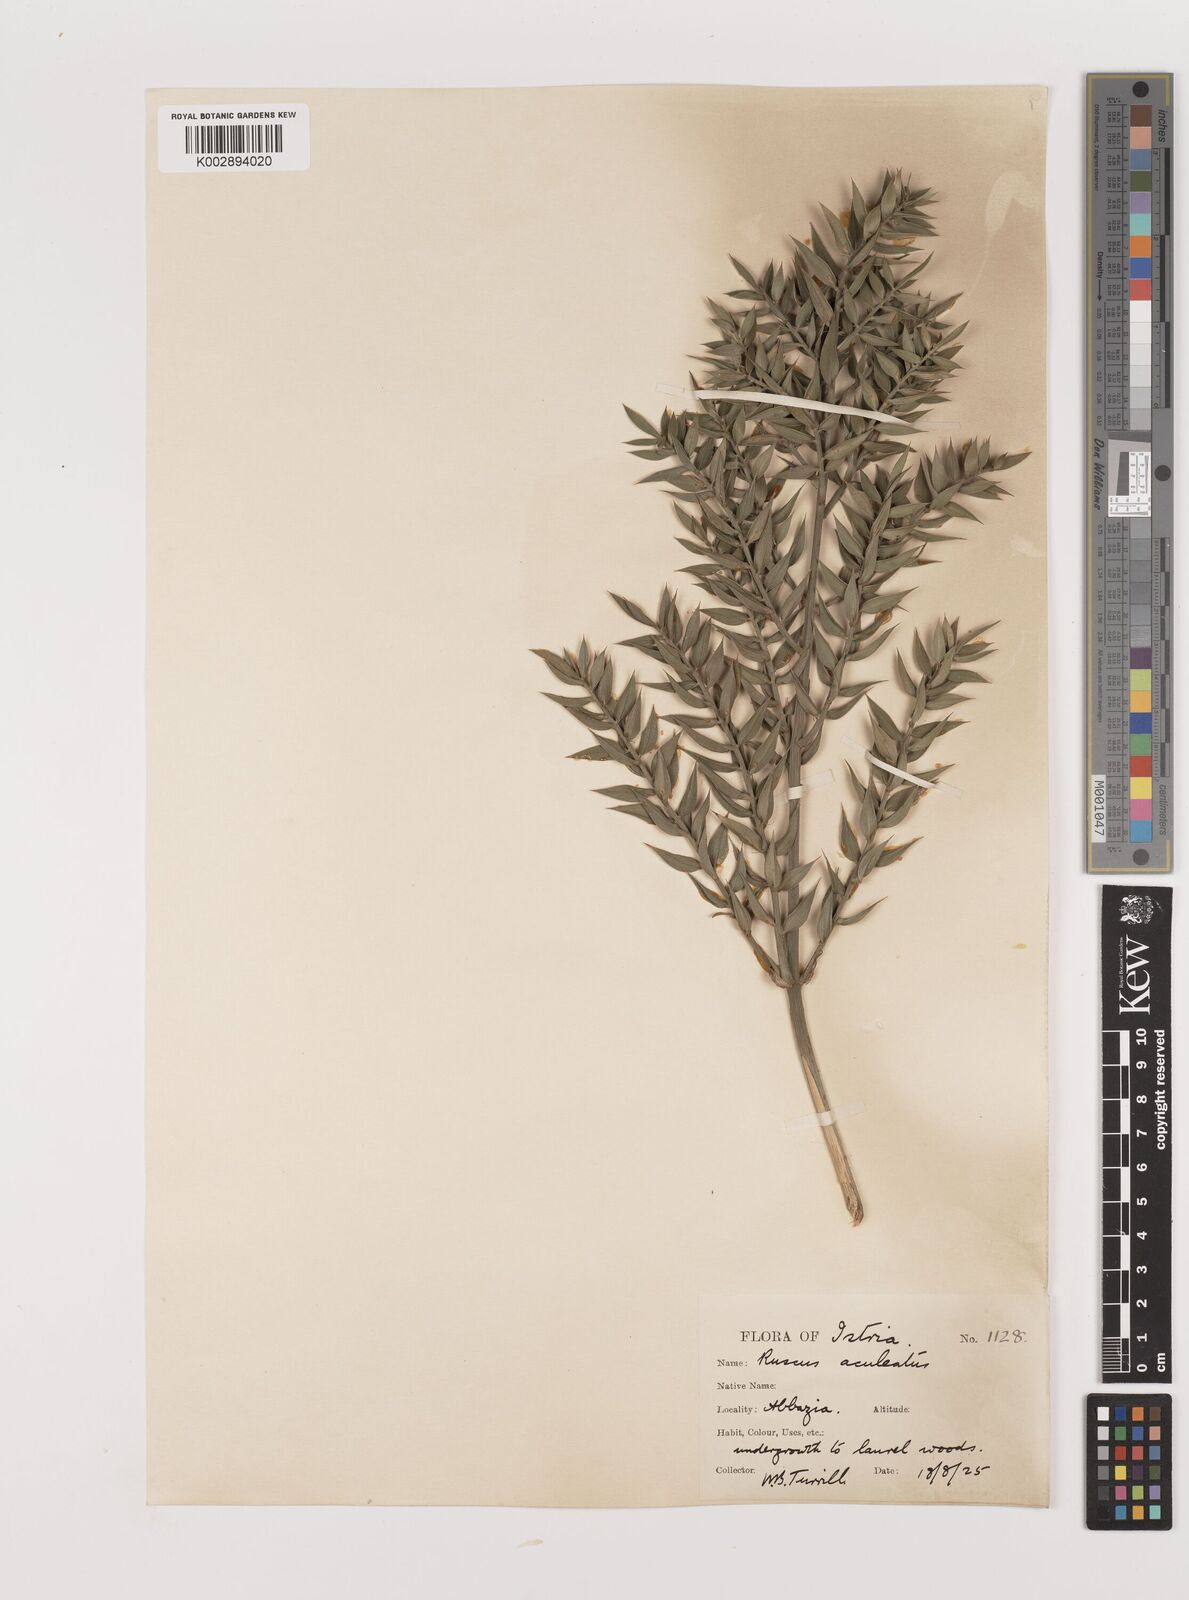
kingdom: Plantae
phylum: Tracheophyta
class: Liliopsida
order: Asparagales
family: Asparagaceae
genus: Ruscus
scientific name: Ruscus aculeatus
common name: Butcher's-broom
